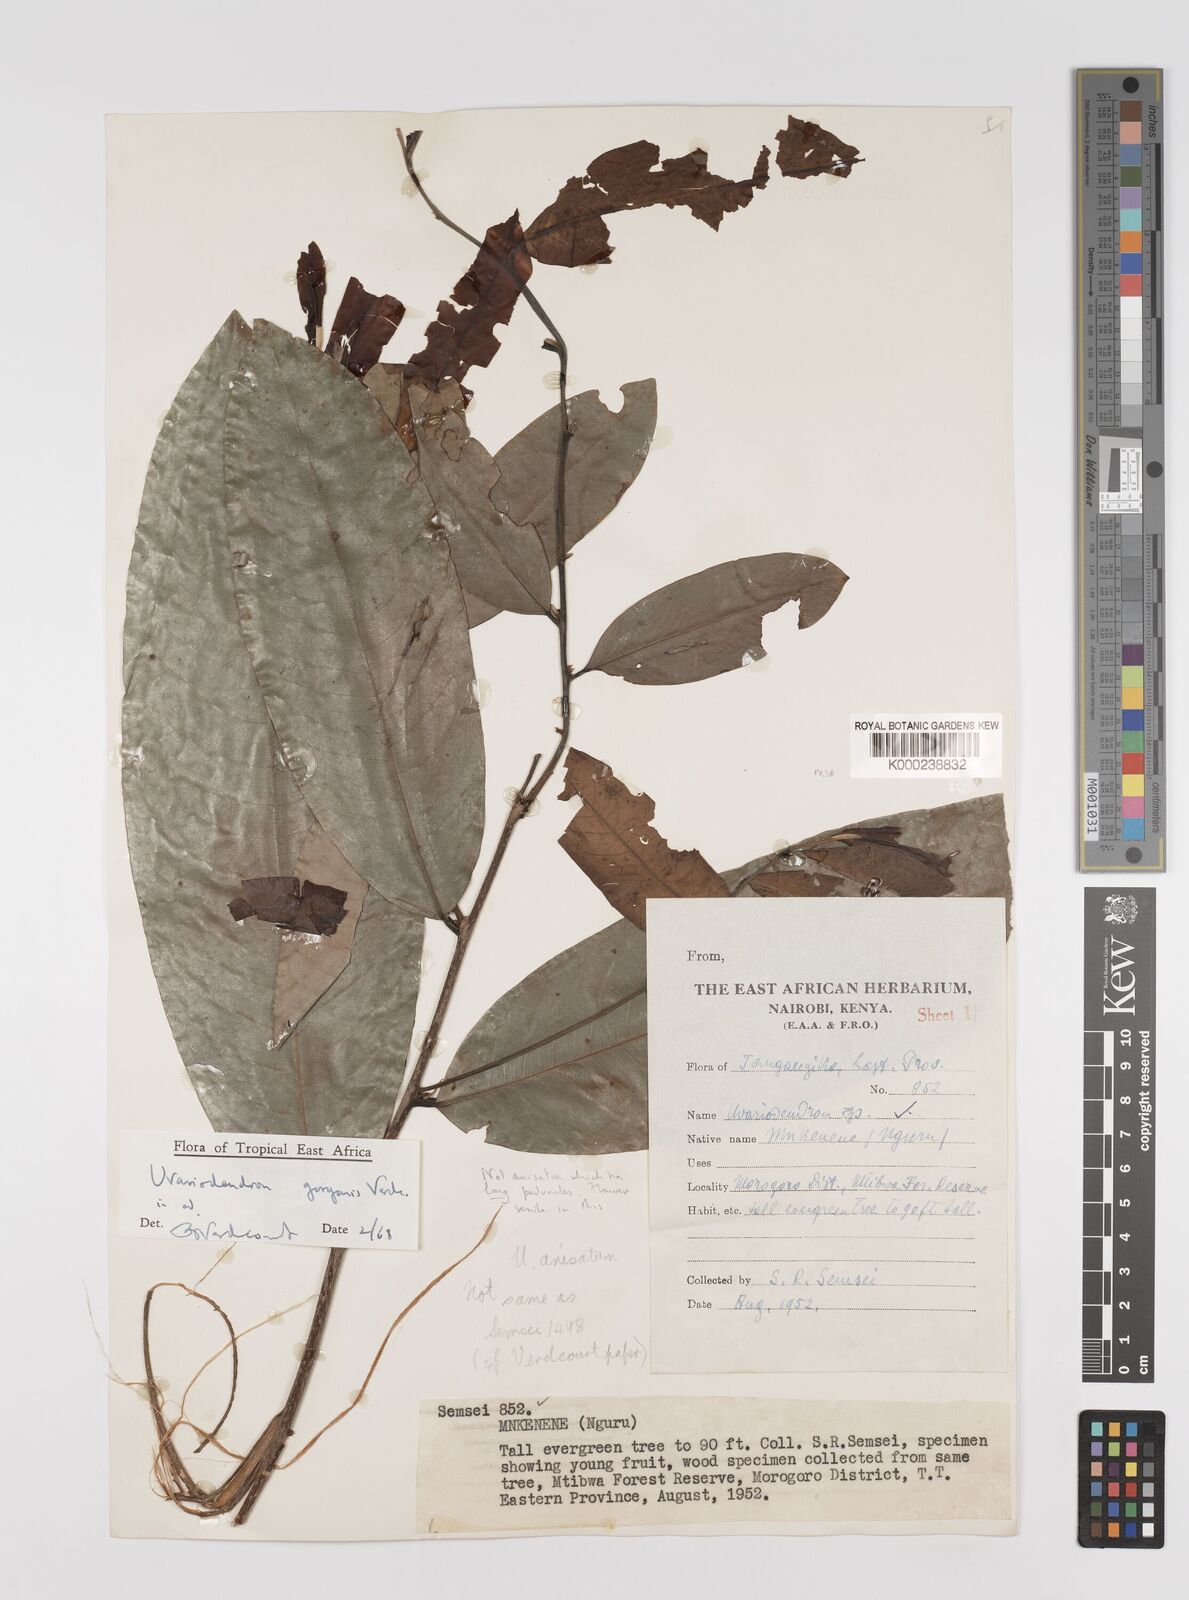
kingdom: Plantae
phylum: Tracheophyta
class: Magnoliopsida
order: Magnoliales
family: Annonaceae
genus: Uvariodendron
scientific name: Uvariodendron gorgonis
